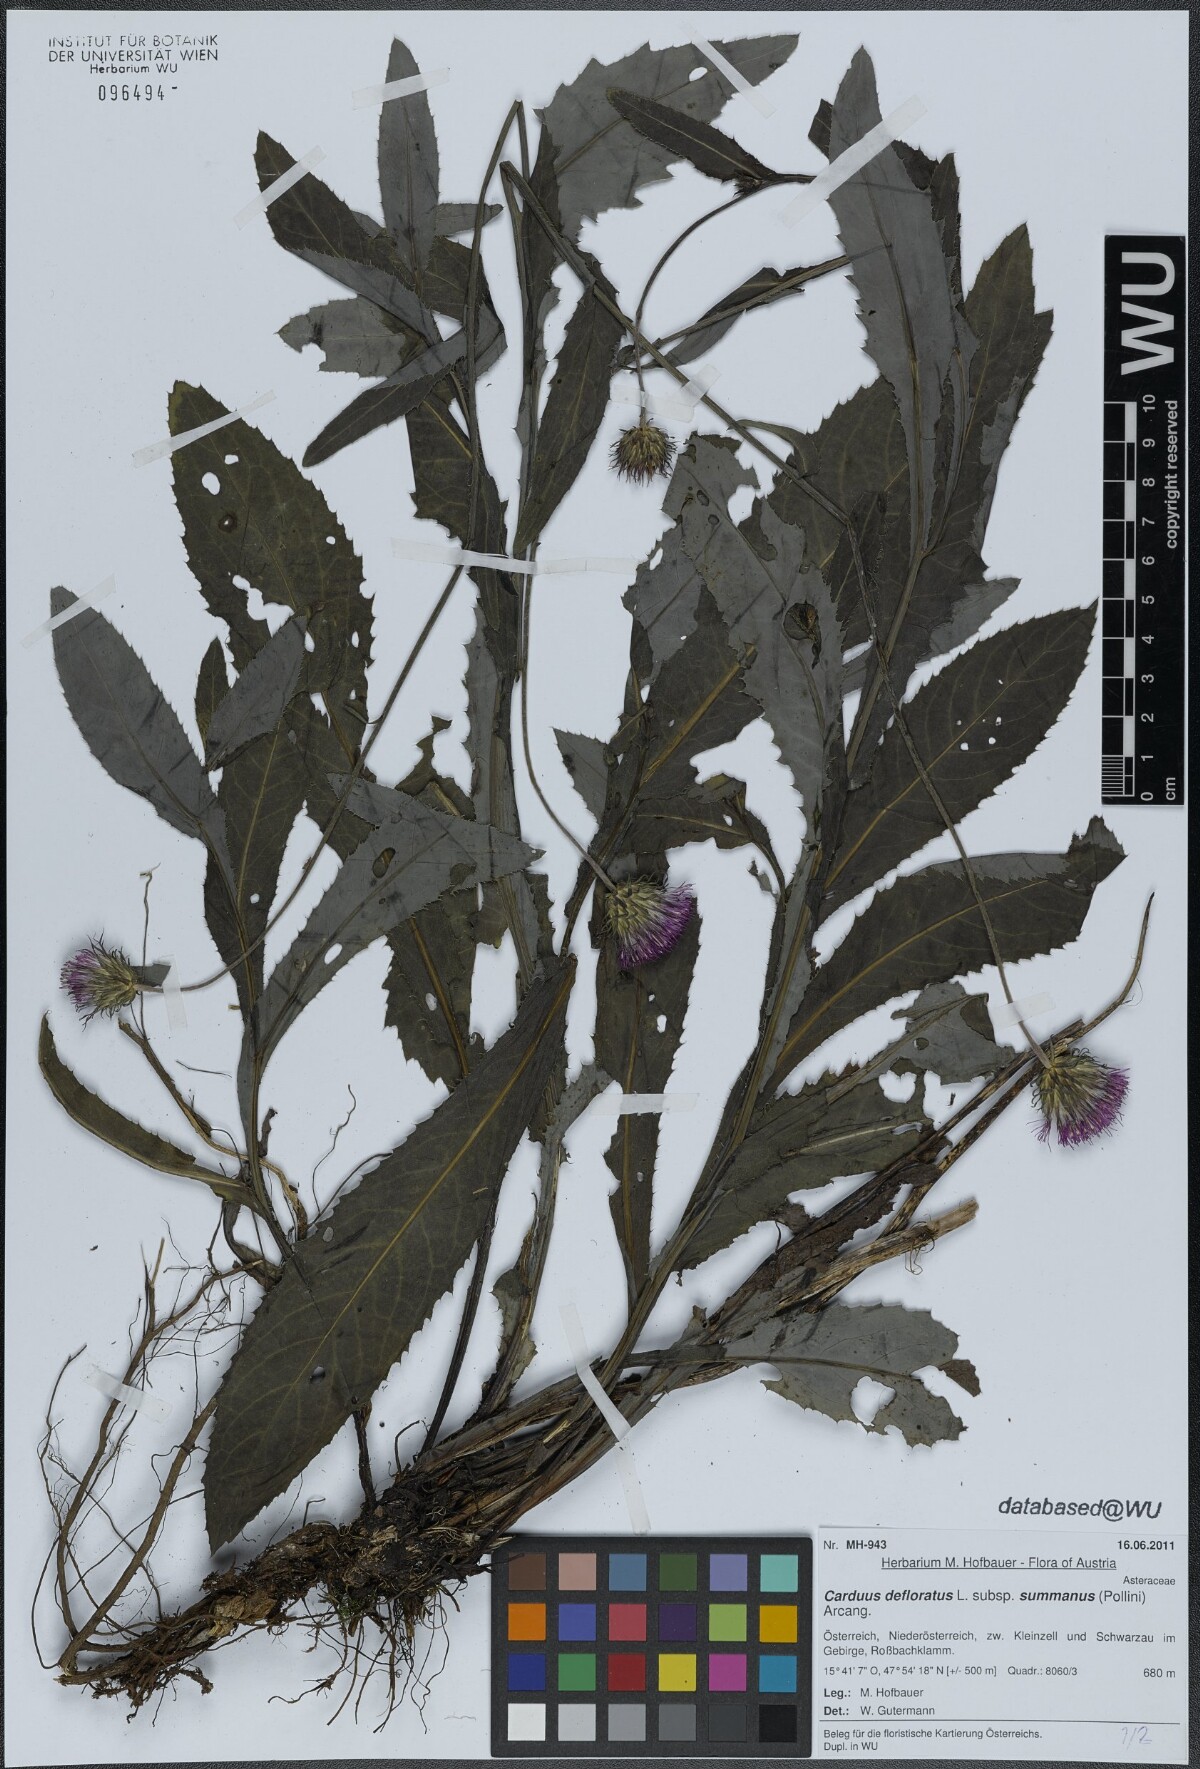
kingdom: Plantae
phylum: Tracheophyta
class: Magnoliopsida
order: Asterales
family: Asteraceae
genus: Carduus
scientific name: Carduus defloratus
